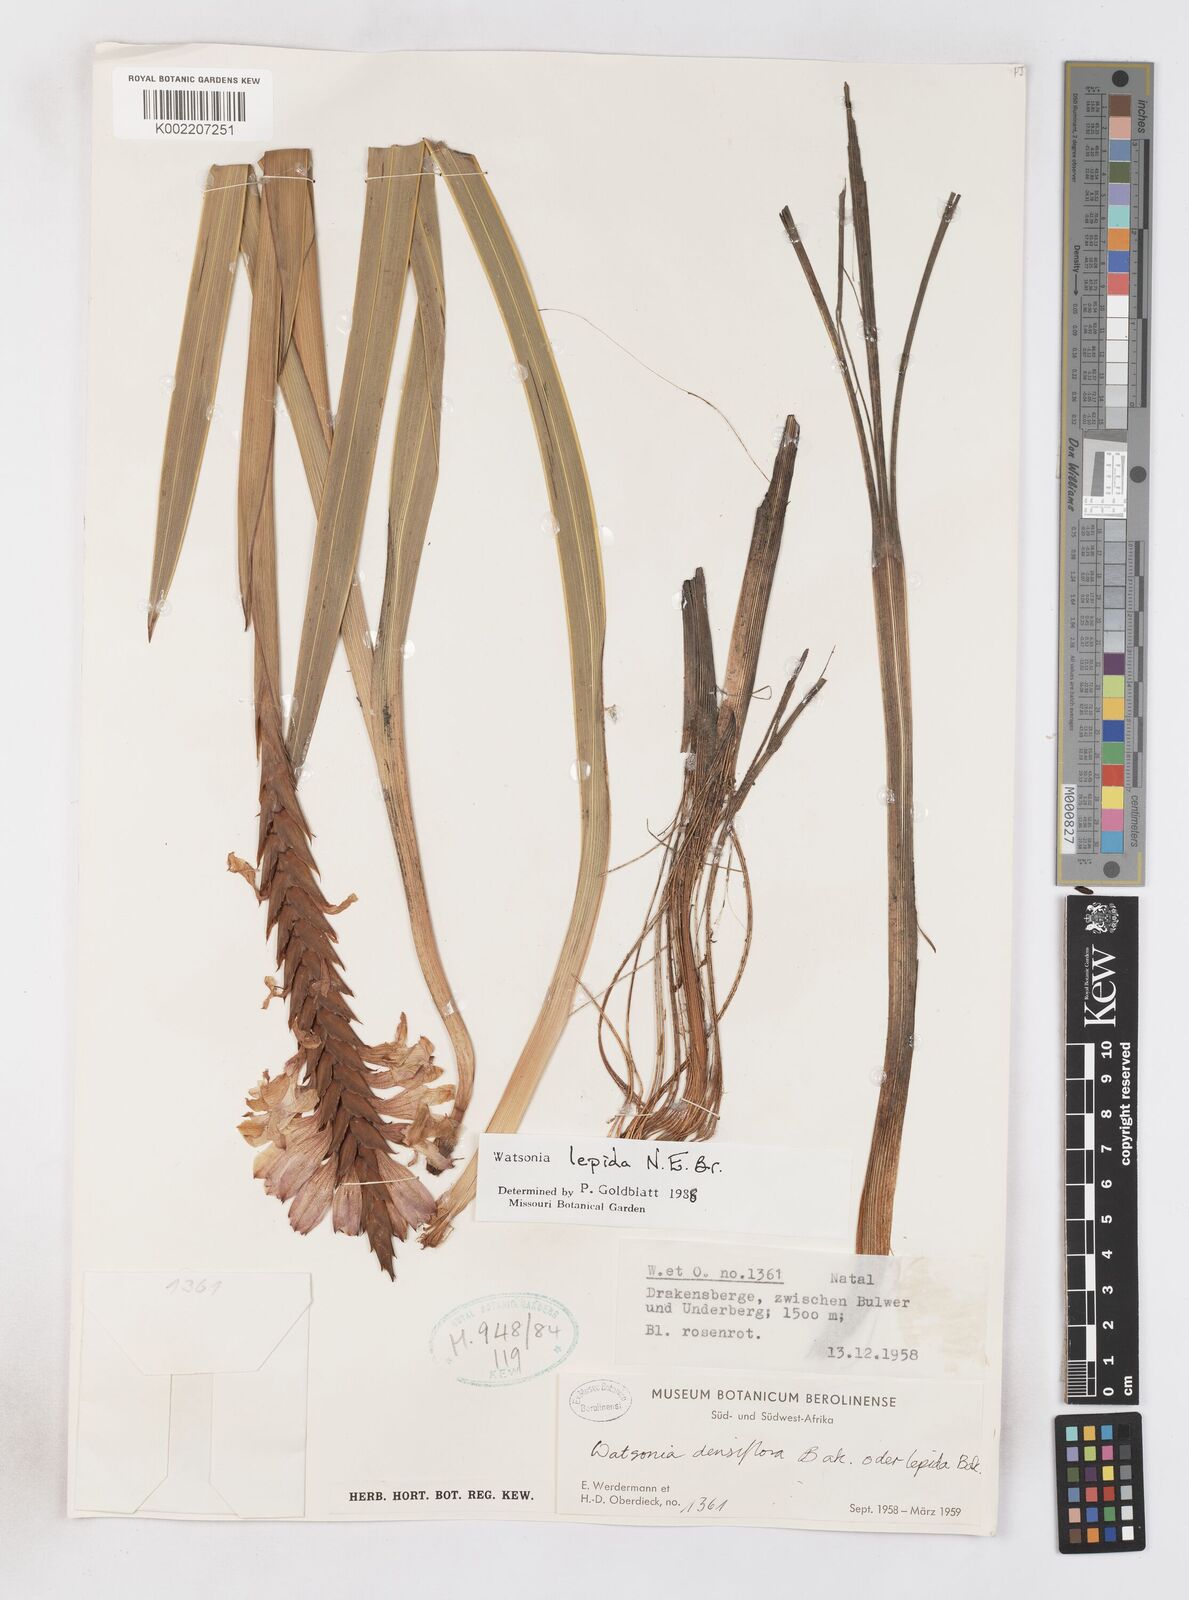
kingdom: Plantae
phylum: Tracheophyta
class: Liliopsida
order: Asparagales
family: Iridaceae
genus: Watsonia
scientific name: Watsonia lepida
